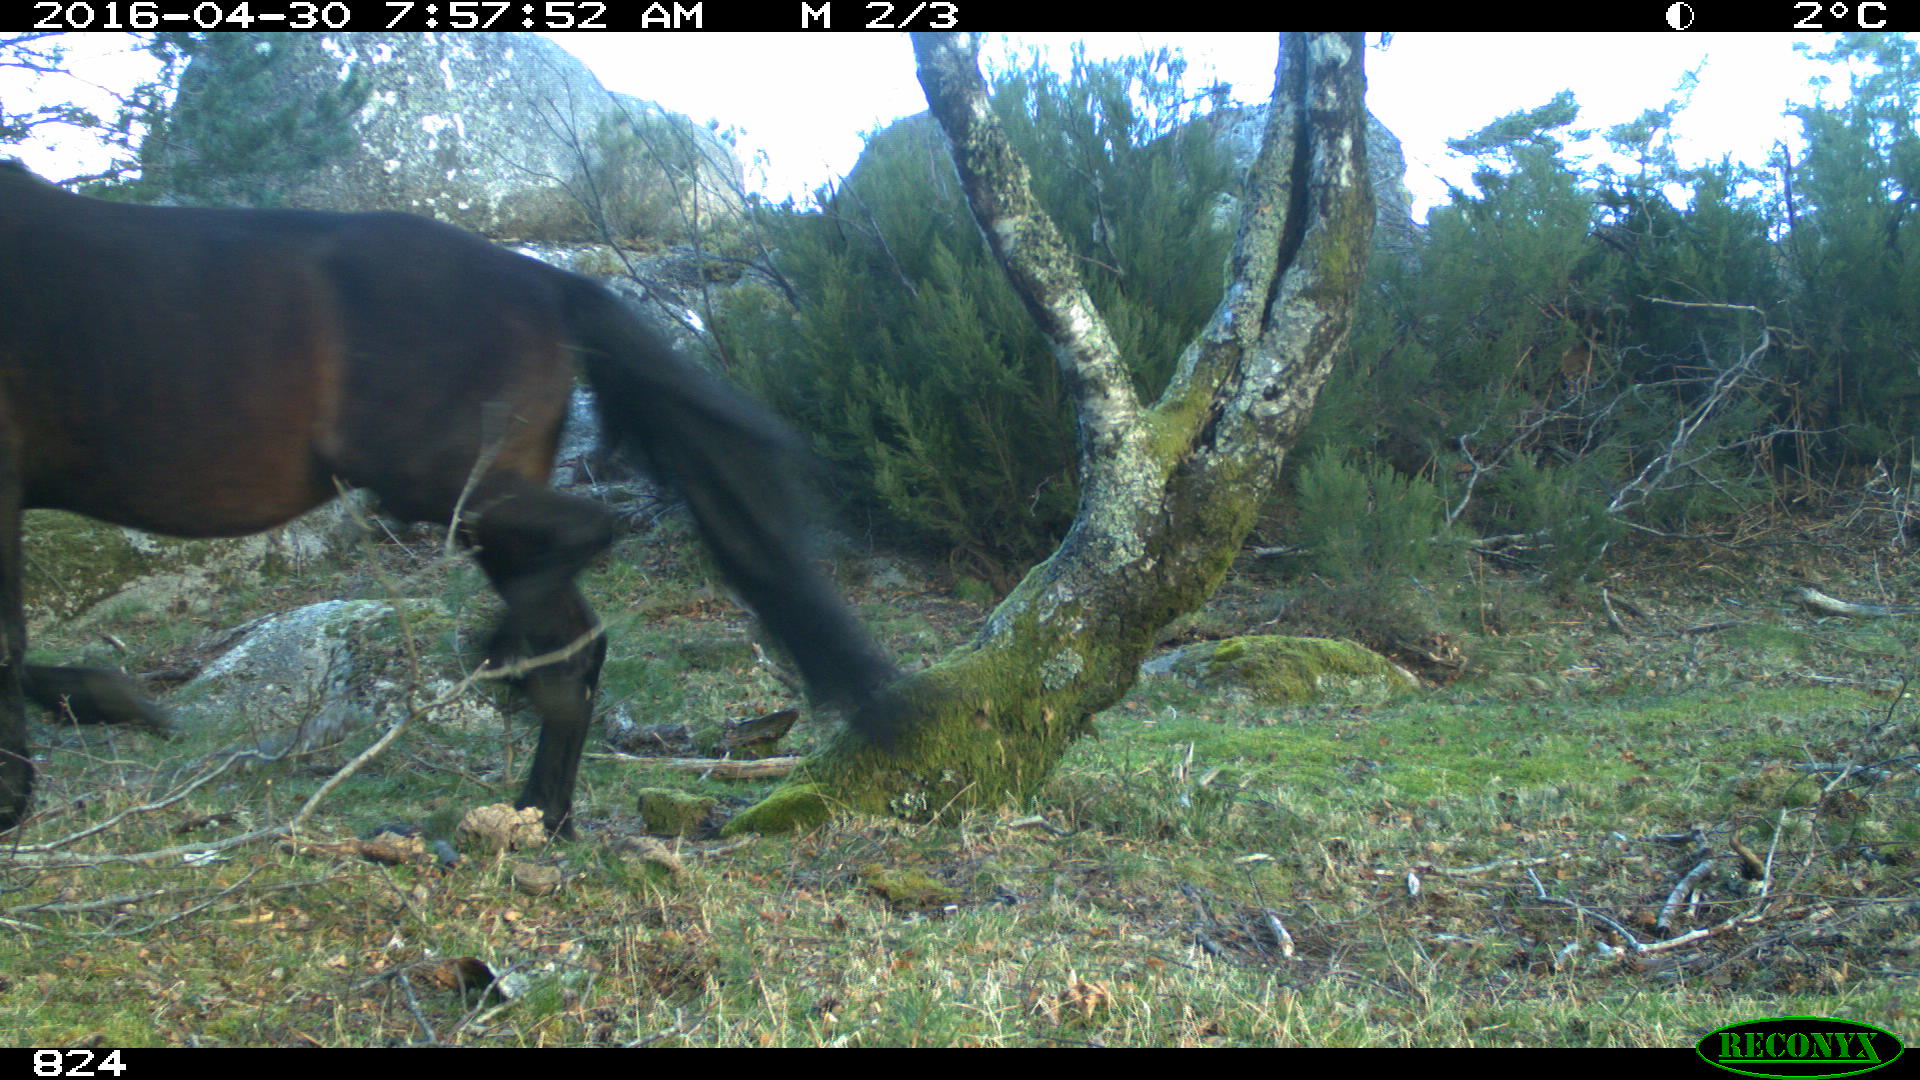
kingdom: Animalia
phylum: Chordata
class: Mammalia
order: Perissodactyla
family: Equidae
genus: Equus
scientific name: Equus caballus
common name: Horse
